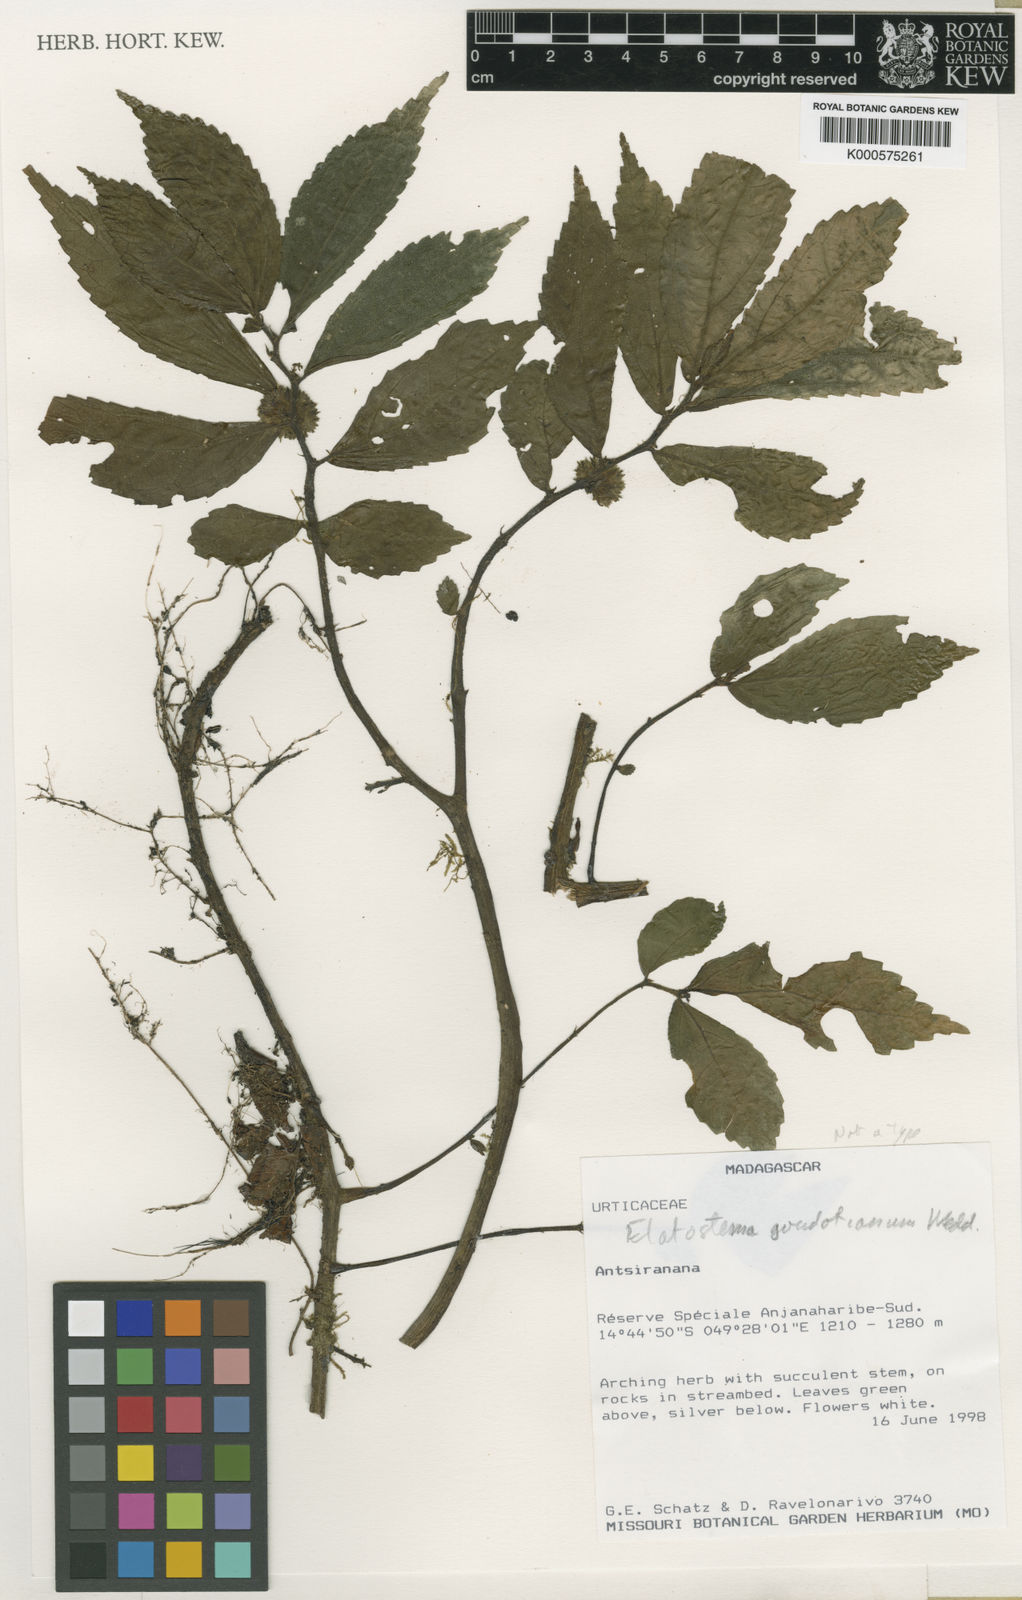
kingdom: Plantae
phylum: Tracheophyta
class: Magnoliopsida
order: Rosales
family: Urticaceae
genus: Elatostema
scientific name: Elatostema goudotianum
